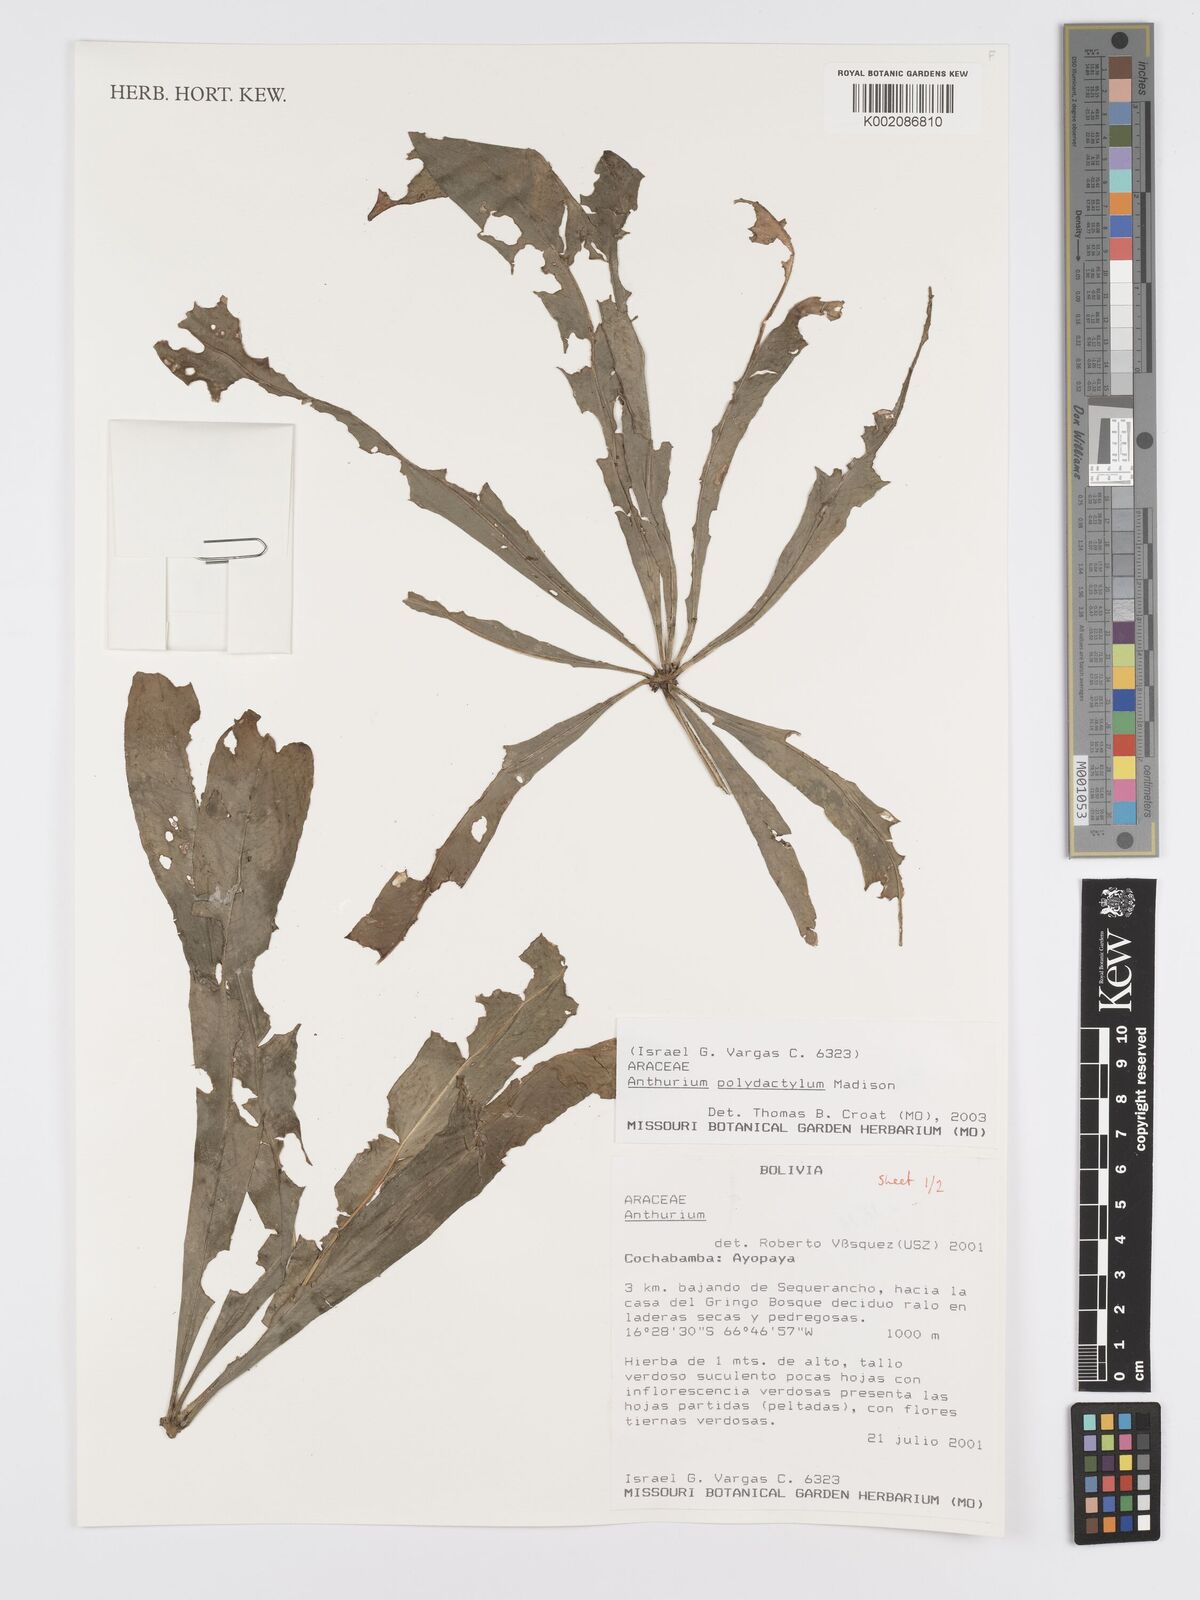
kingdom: Plantae
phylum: Tracheophyta
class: Liliopsida
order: Alismatales
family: Araceae
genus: Anthurium
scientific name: Anthurium polydactylum
